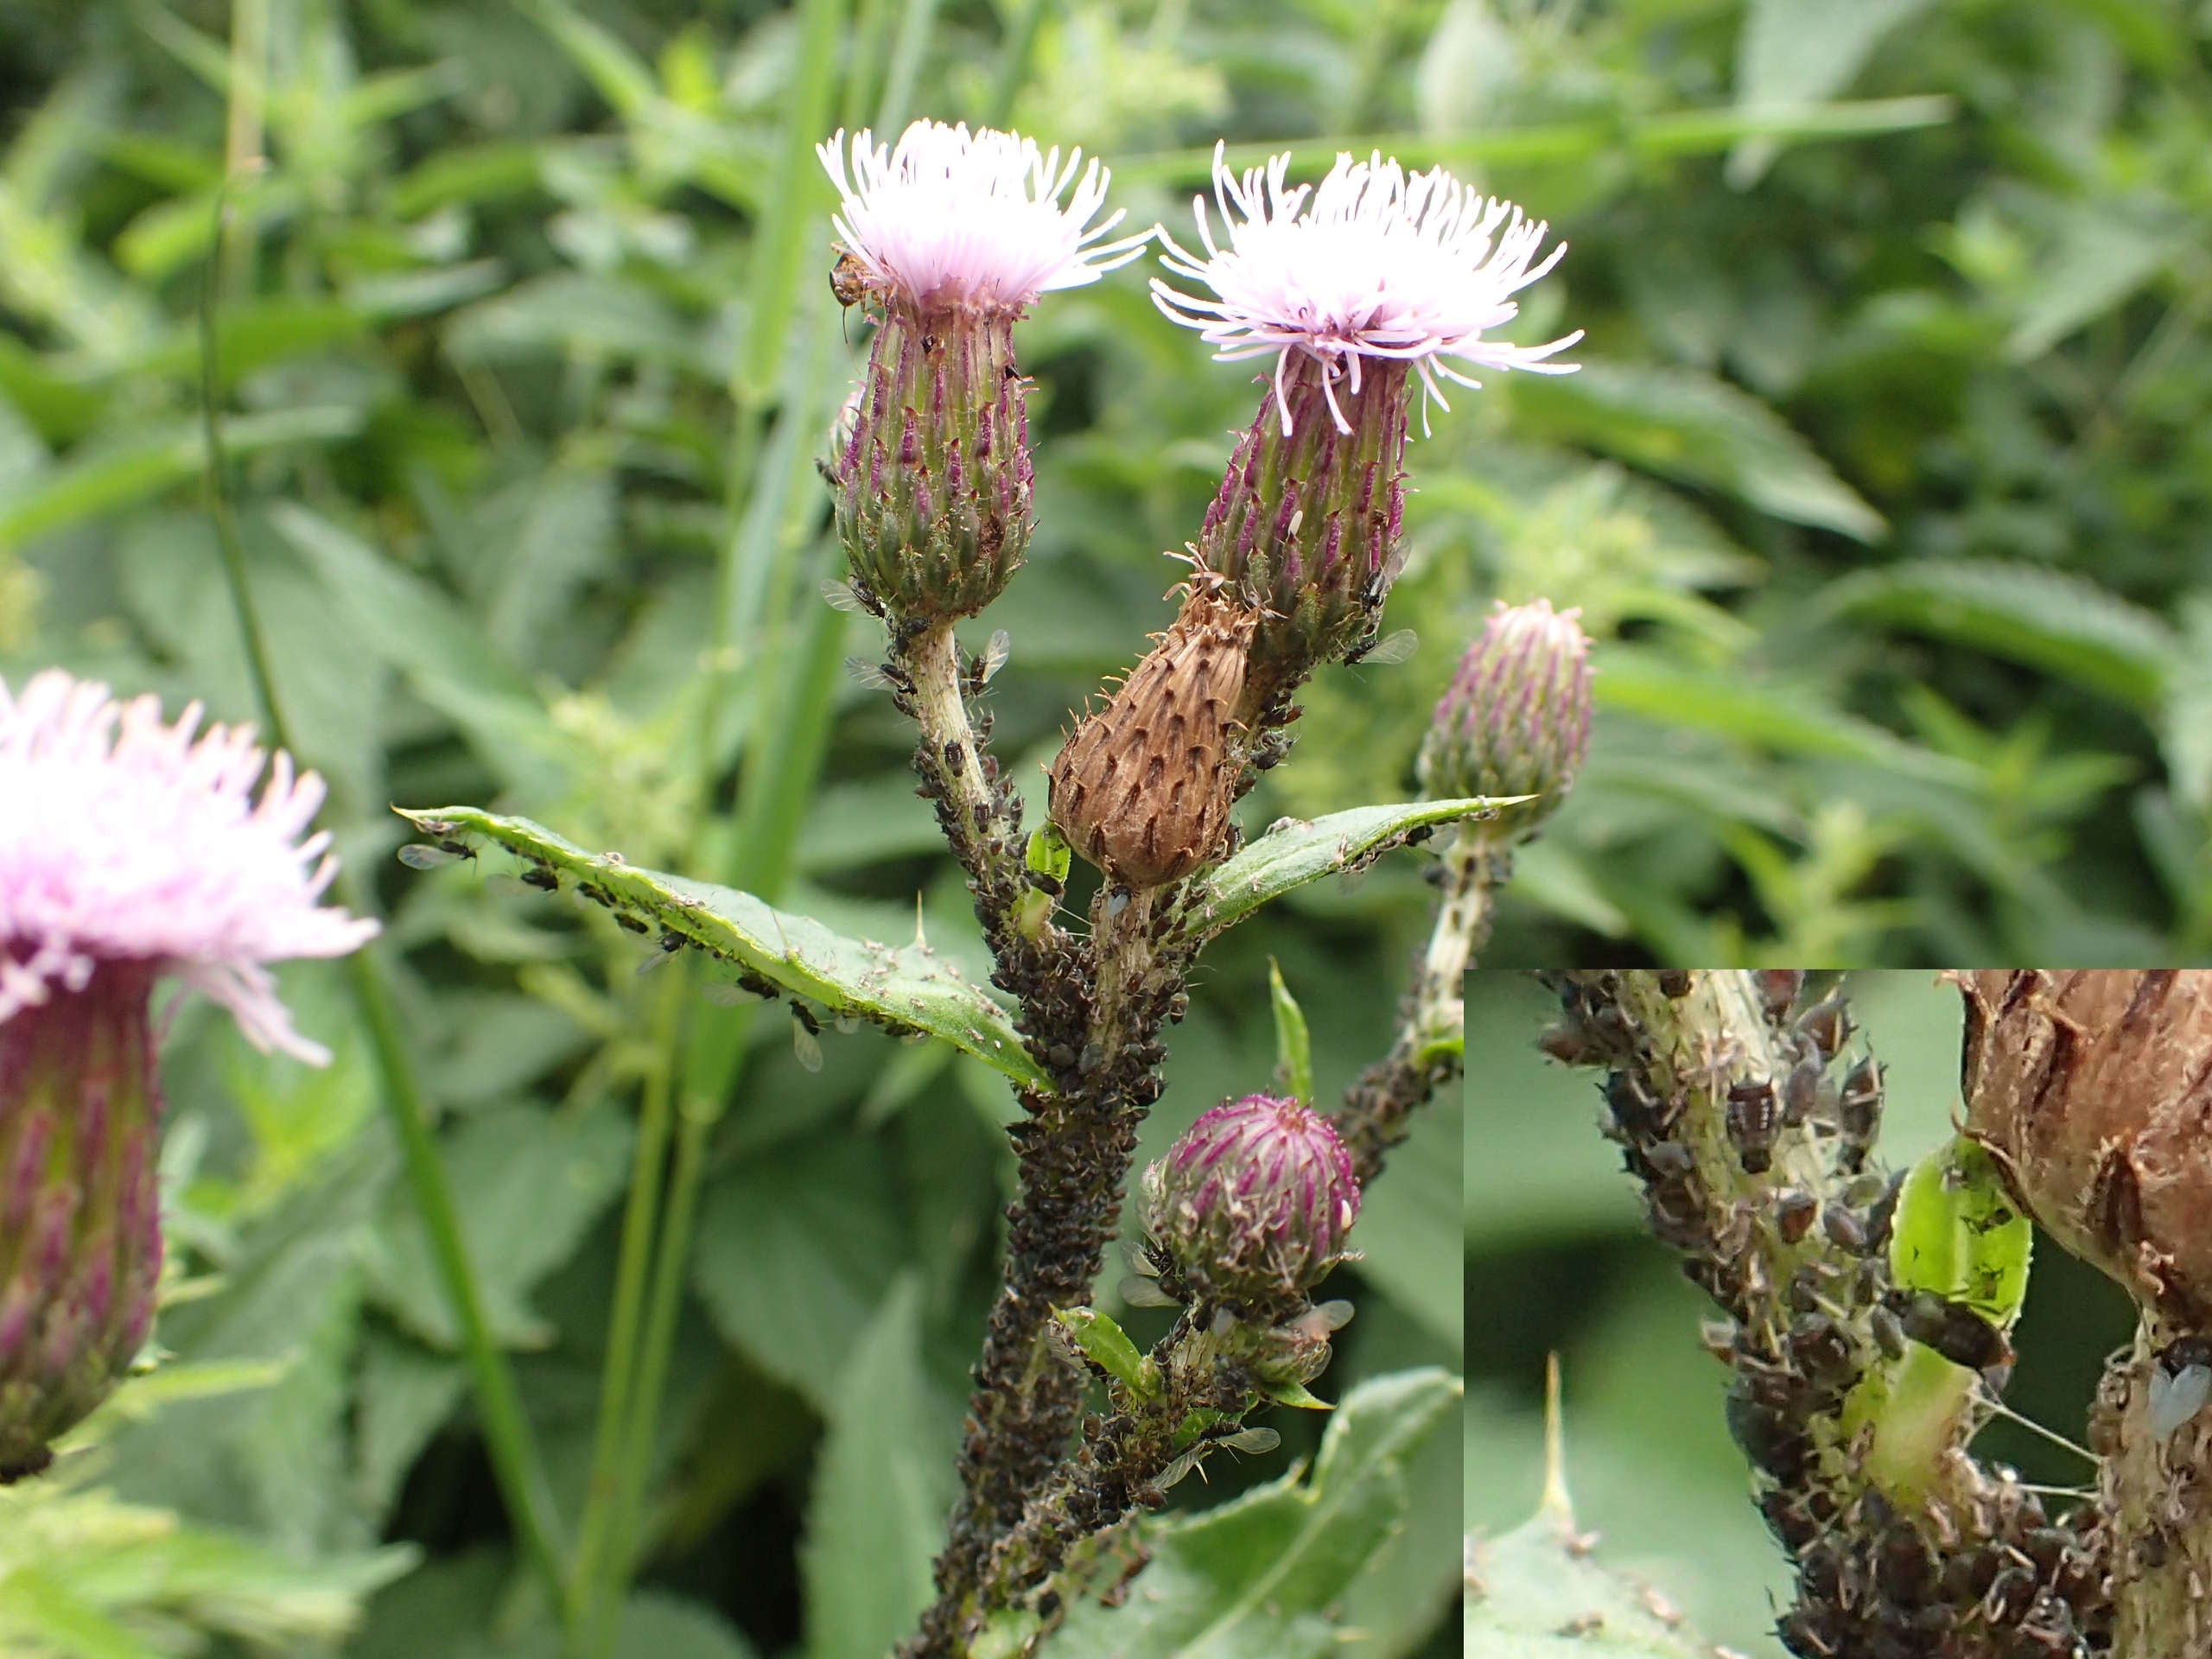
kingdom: Animalia
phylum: Arthropoda
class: Insecta
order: Hemiptera
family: Aphididae
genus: Aphis
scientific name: Aphis fabae
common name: Bedebladlus
